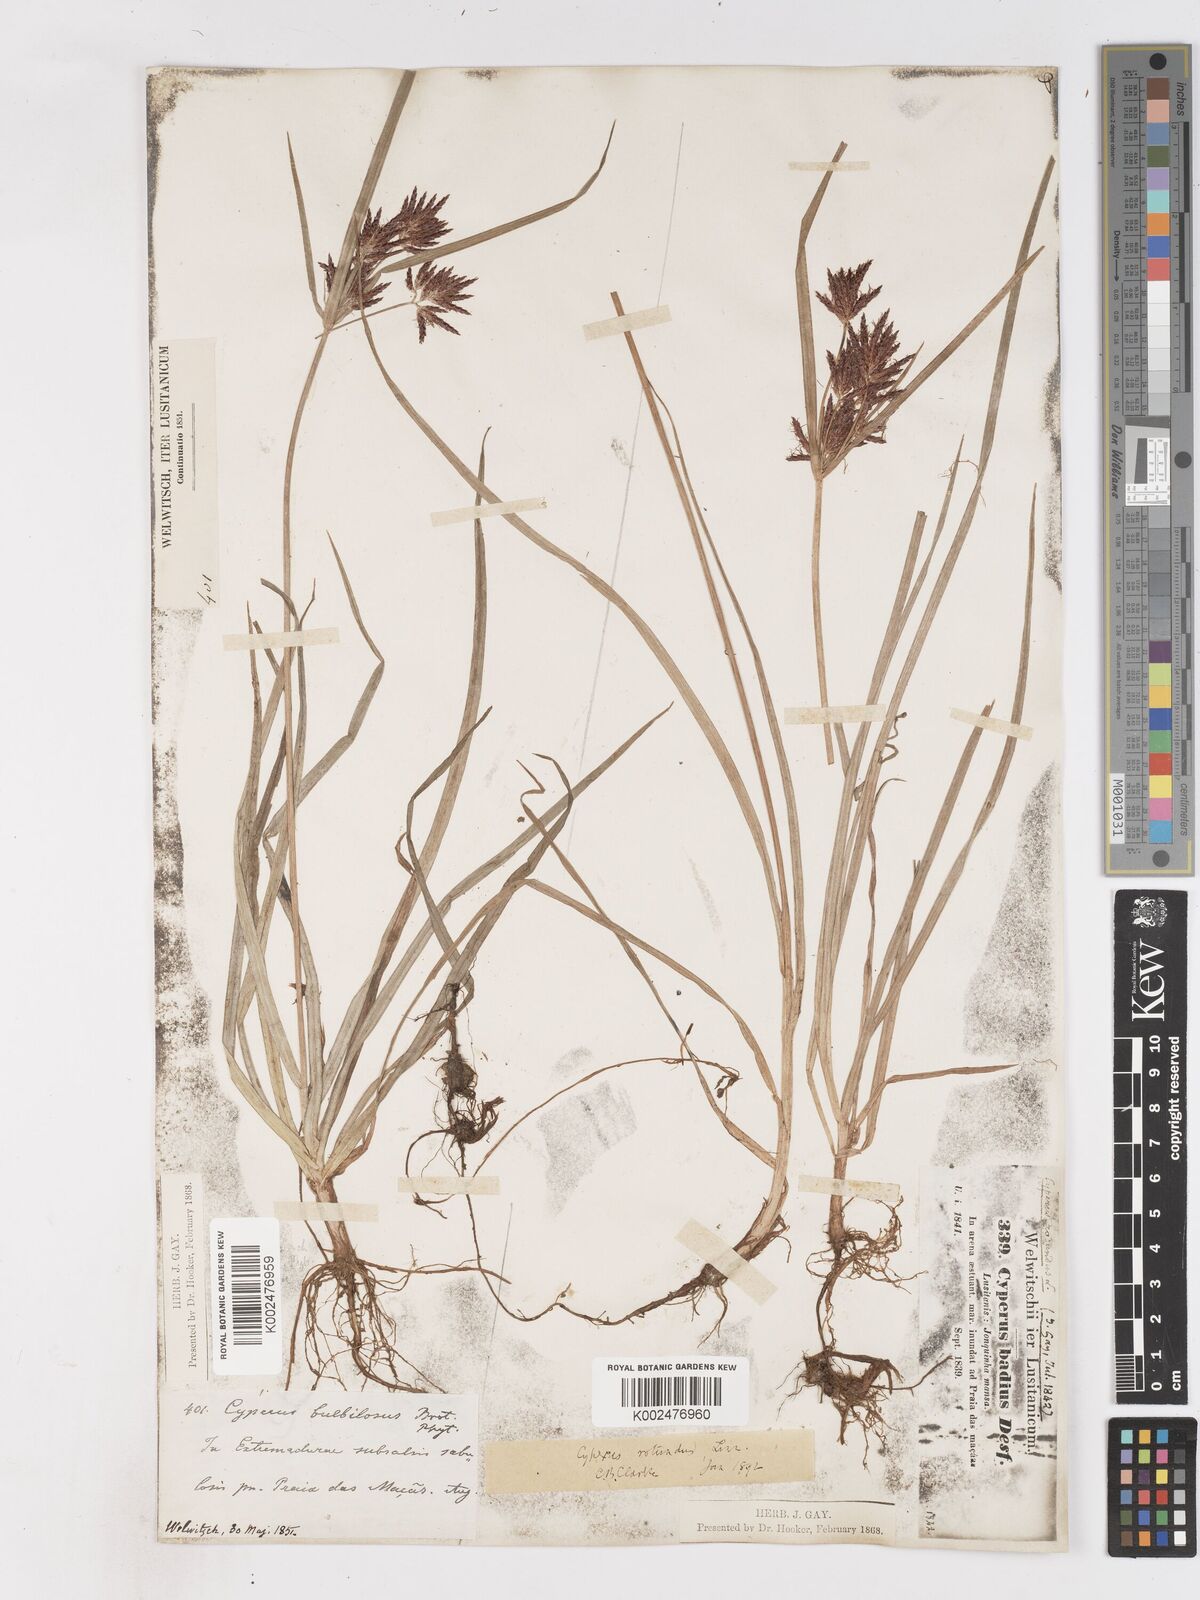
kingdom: Plantae
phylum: Tracheophyta
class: Liliopsida
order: Poales
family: Cyperaceae
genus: Cyperus
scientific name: Cyperus rotundus
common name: Nutgrass
